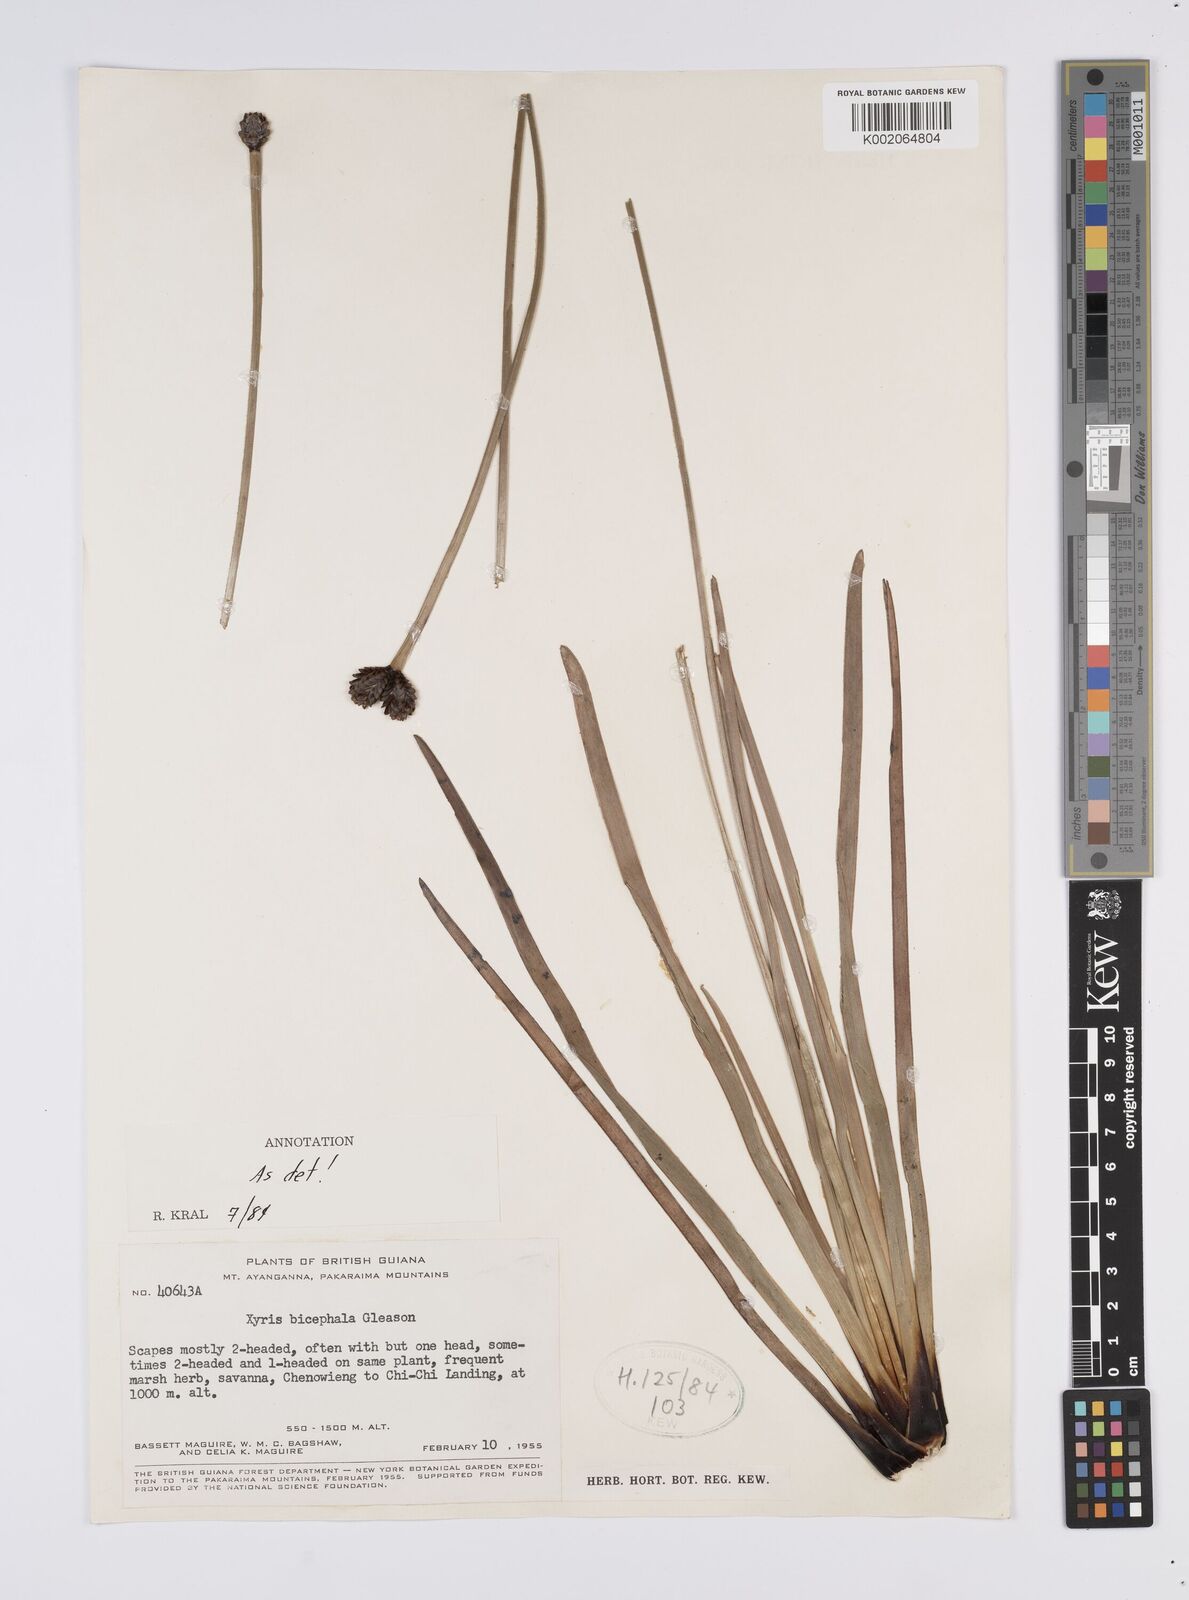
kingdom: Plantae
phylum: Tracheophyta
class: Liliopsida
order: Poales
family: Xyridaceae
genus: Xyris
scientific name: Xyris bicephala
